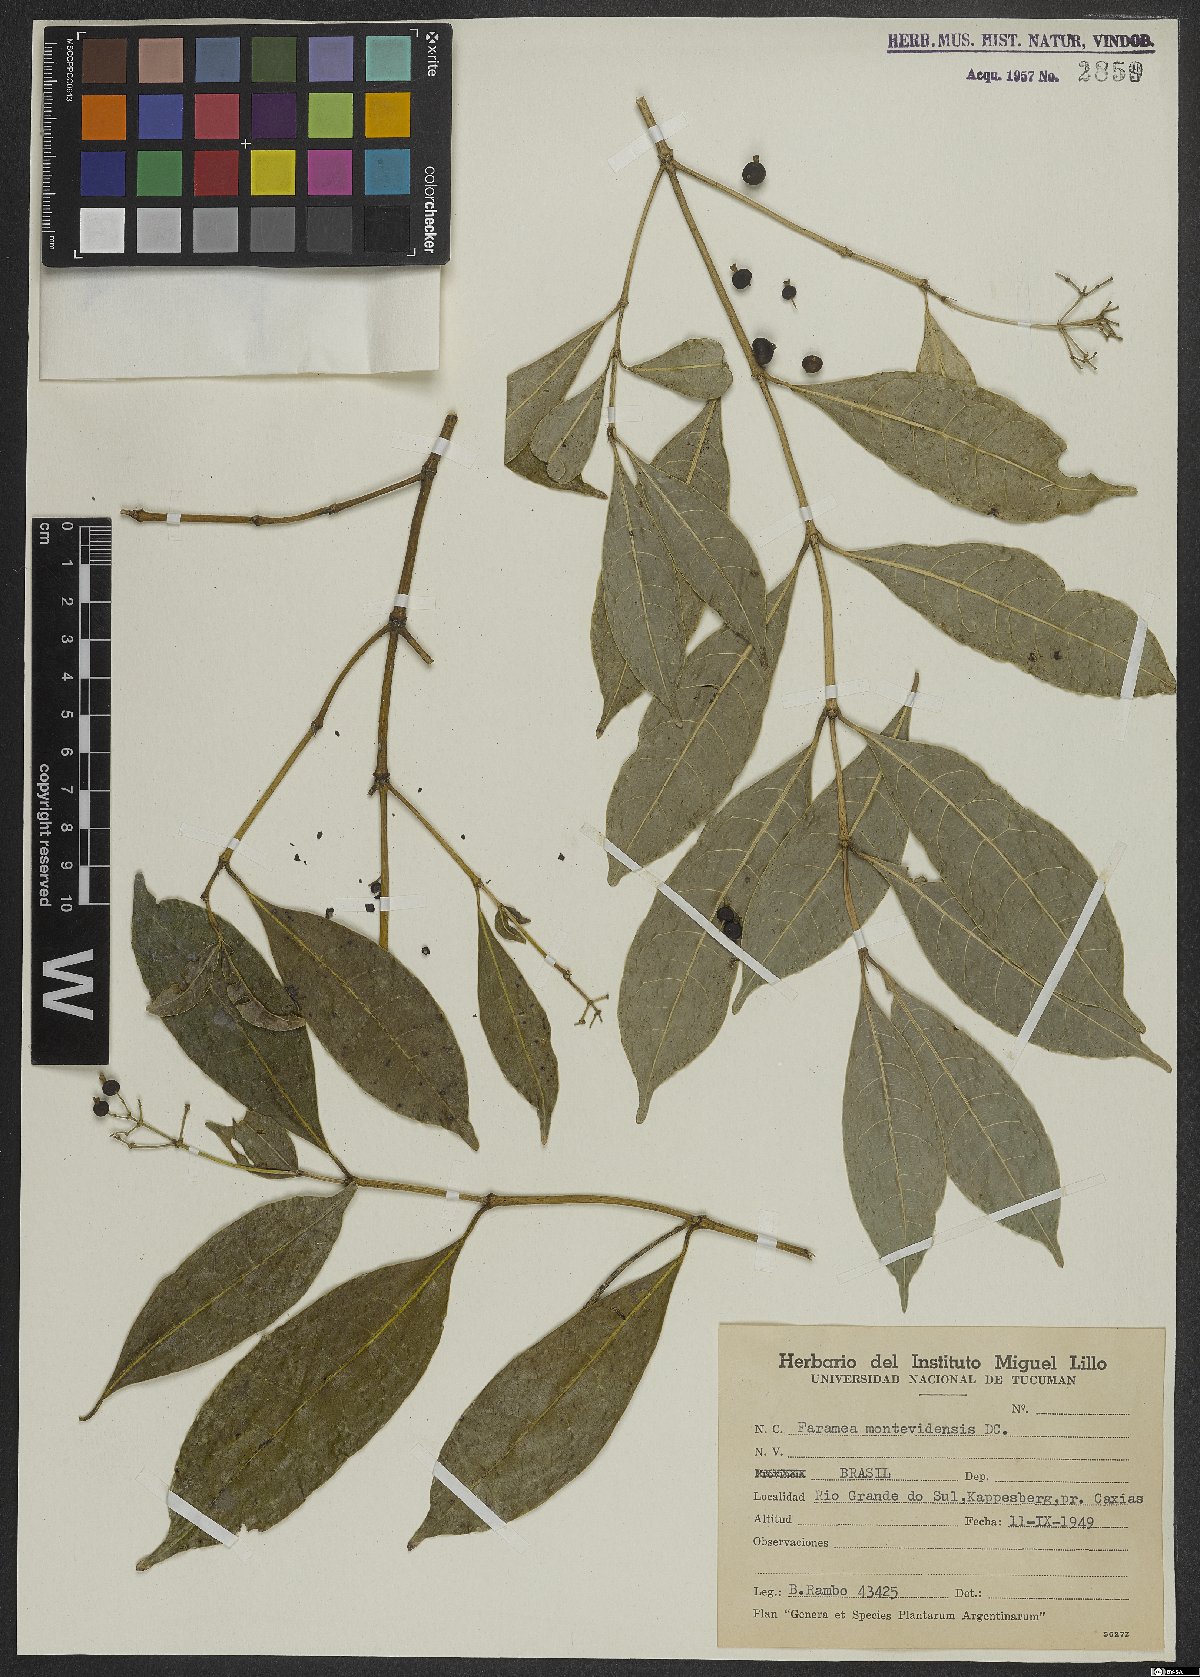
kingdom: Plantae
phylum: Tracheophyta
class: Magnoliopsida
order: Gentianales
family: Rubiaceae
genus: Faramea
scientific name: Faramea montevidensis
